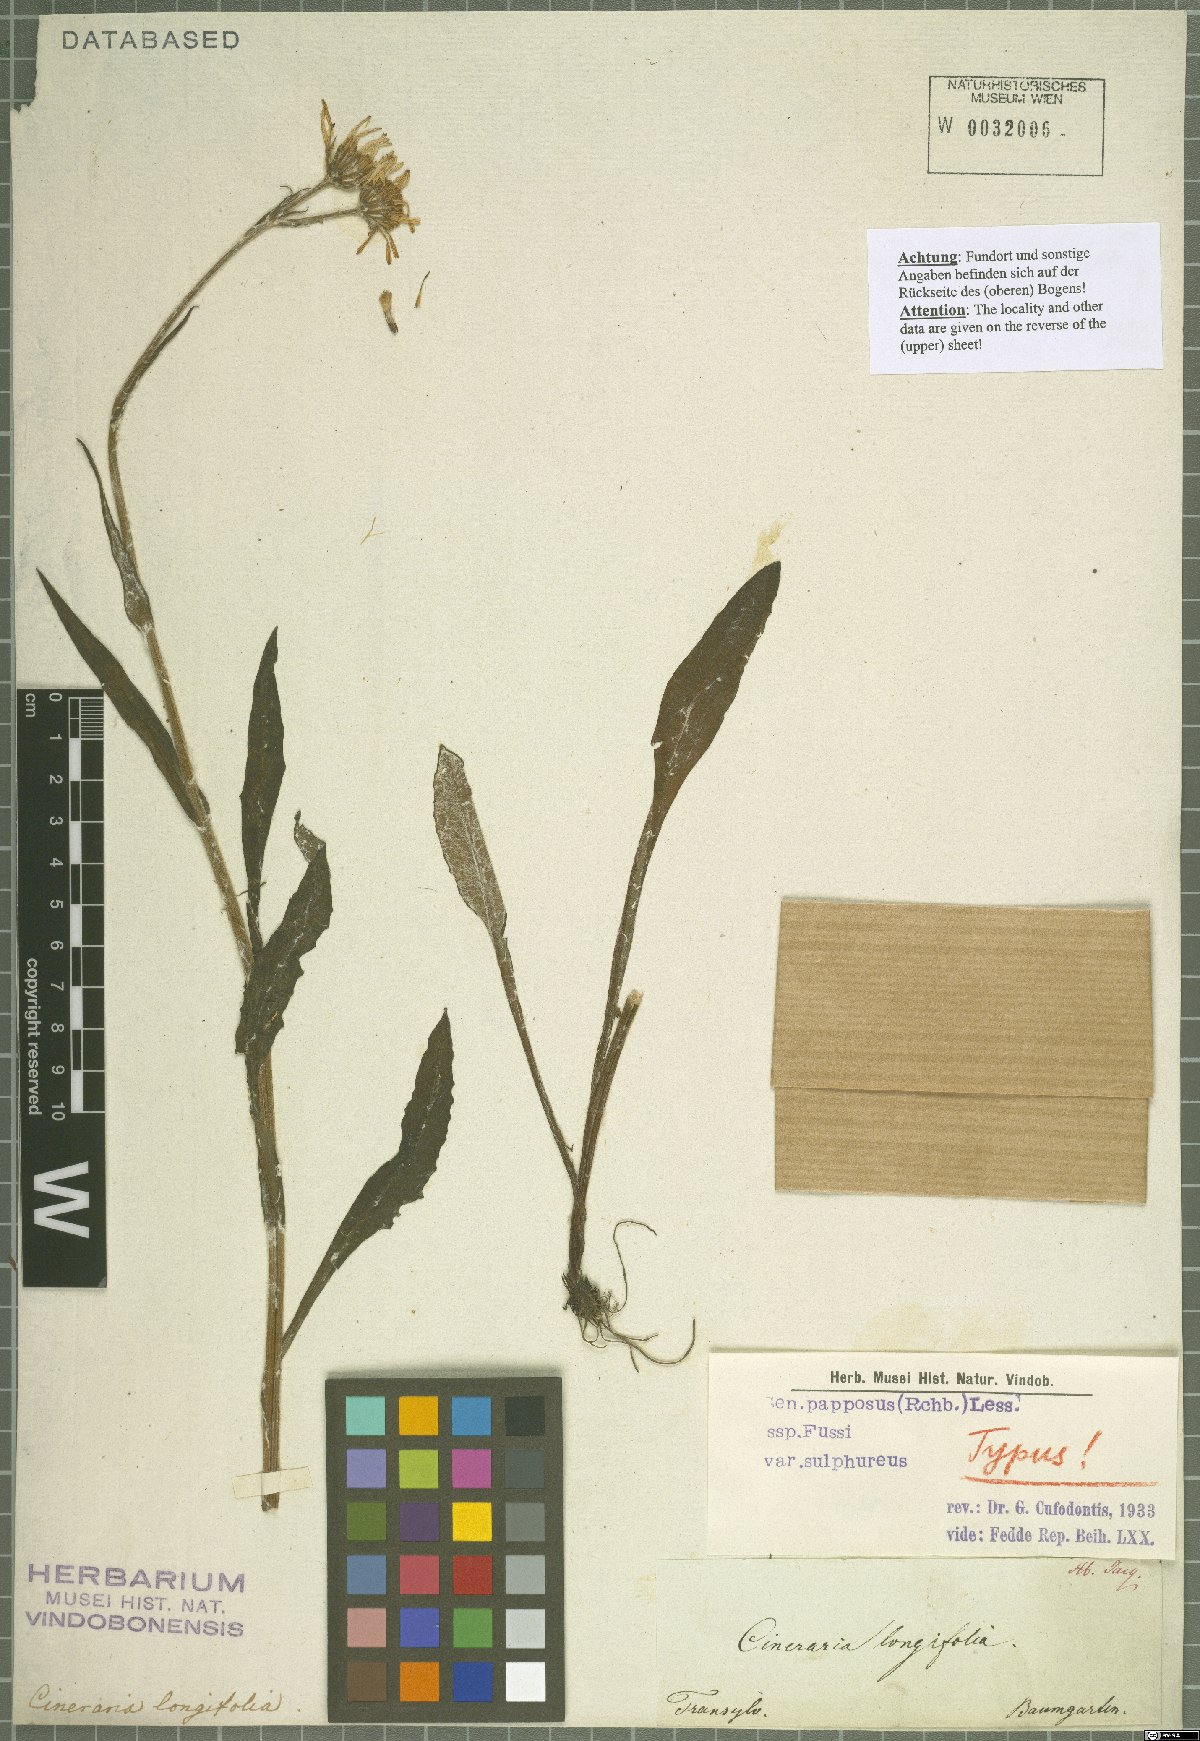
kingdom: Plantae
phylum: Tracheophyta
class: Magnoliopsida
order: Asterales
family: Asteraceae
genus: Tephroseris
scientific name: Tephroseris papposa
